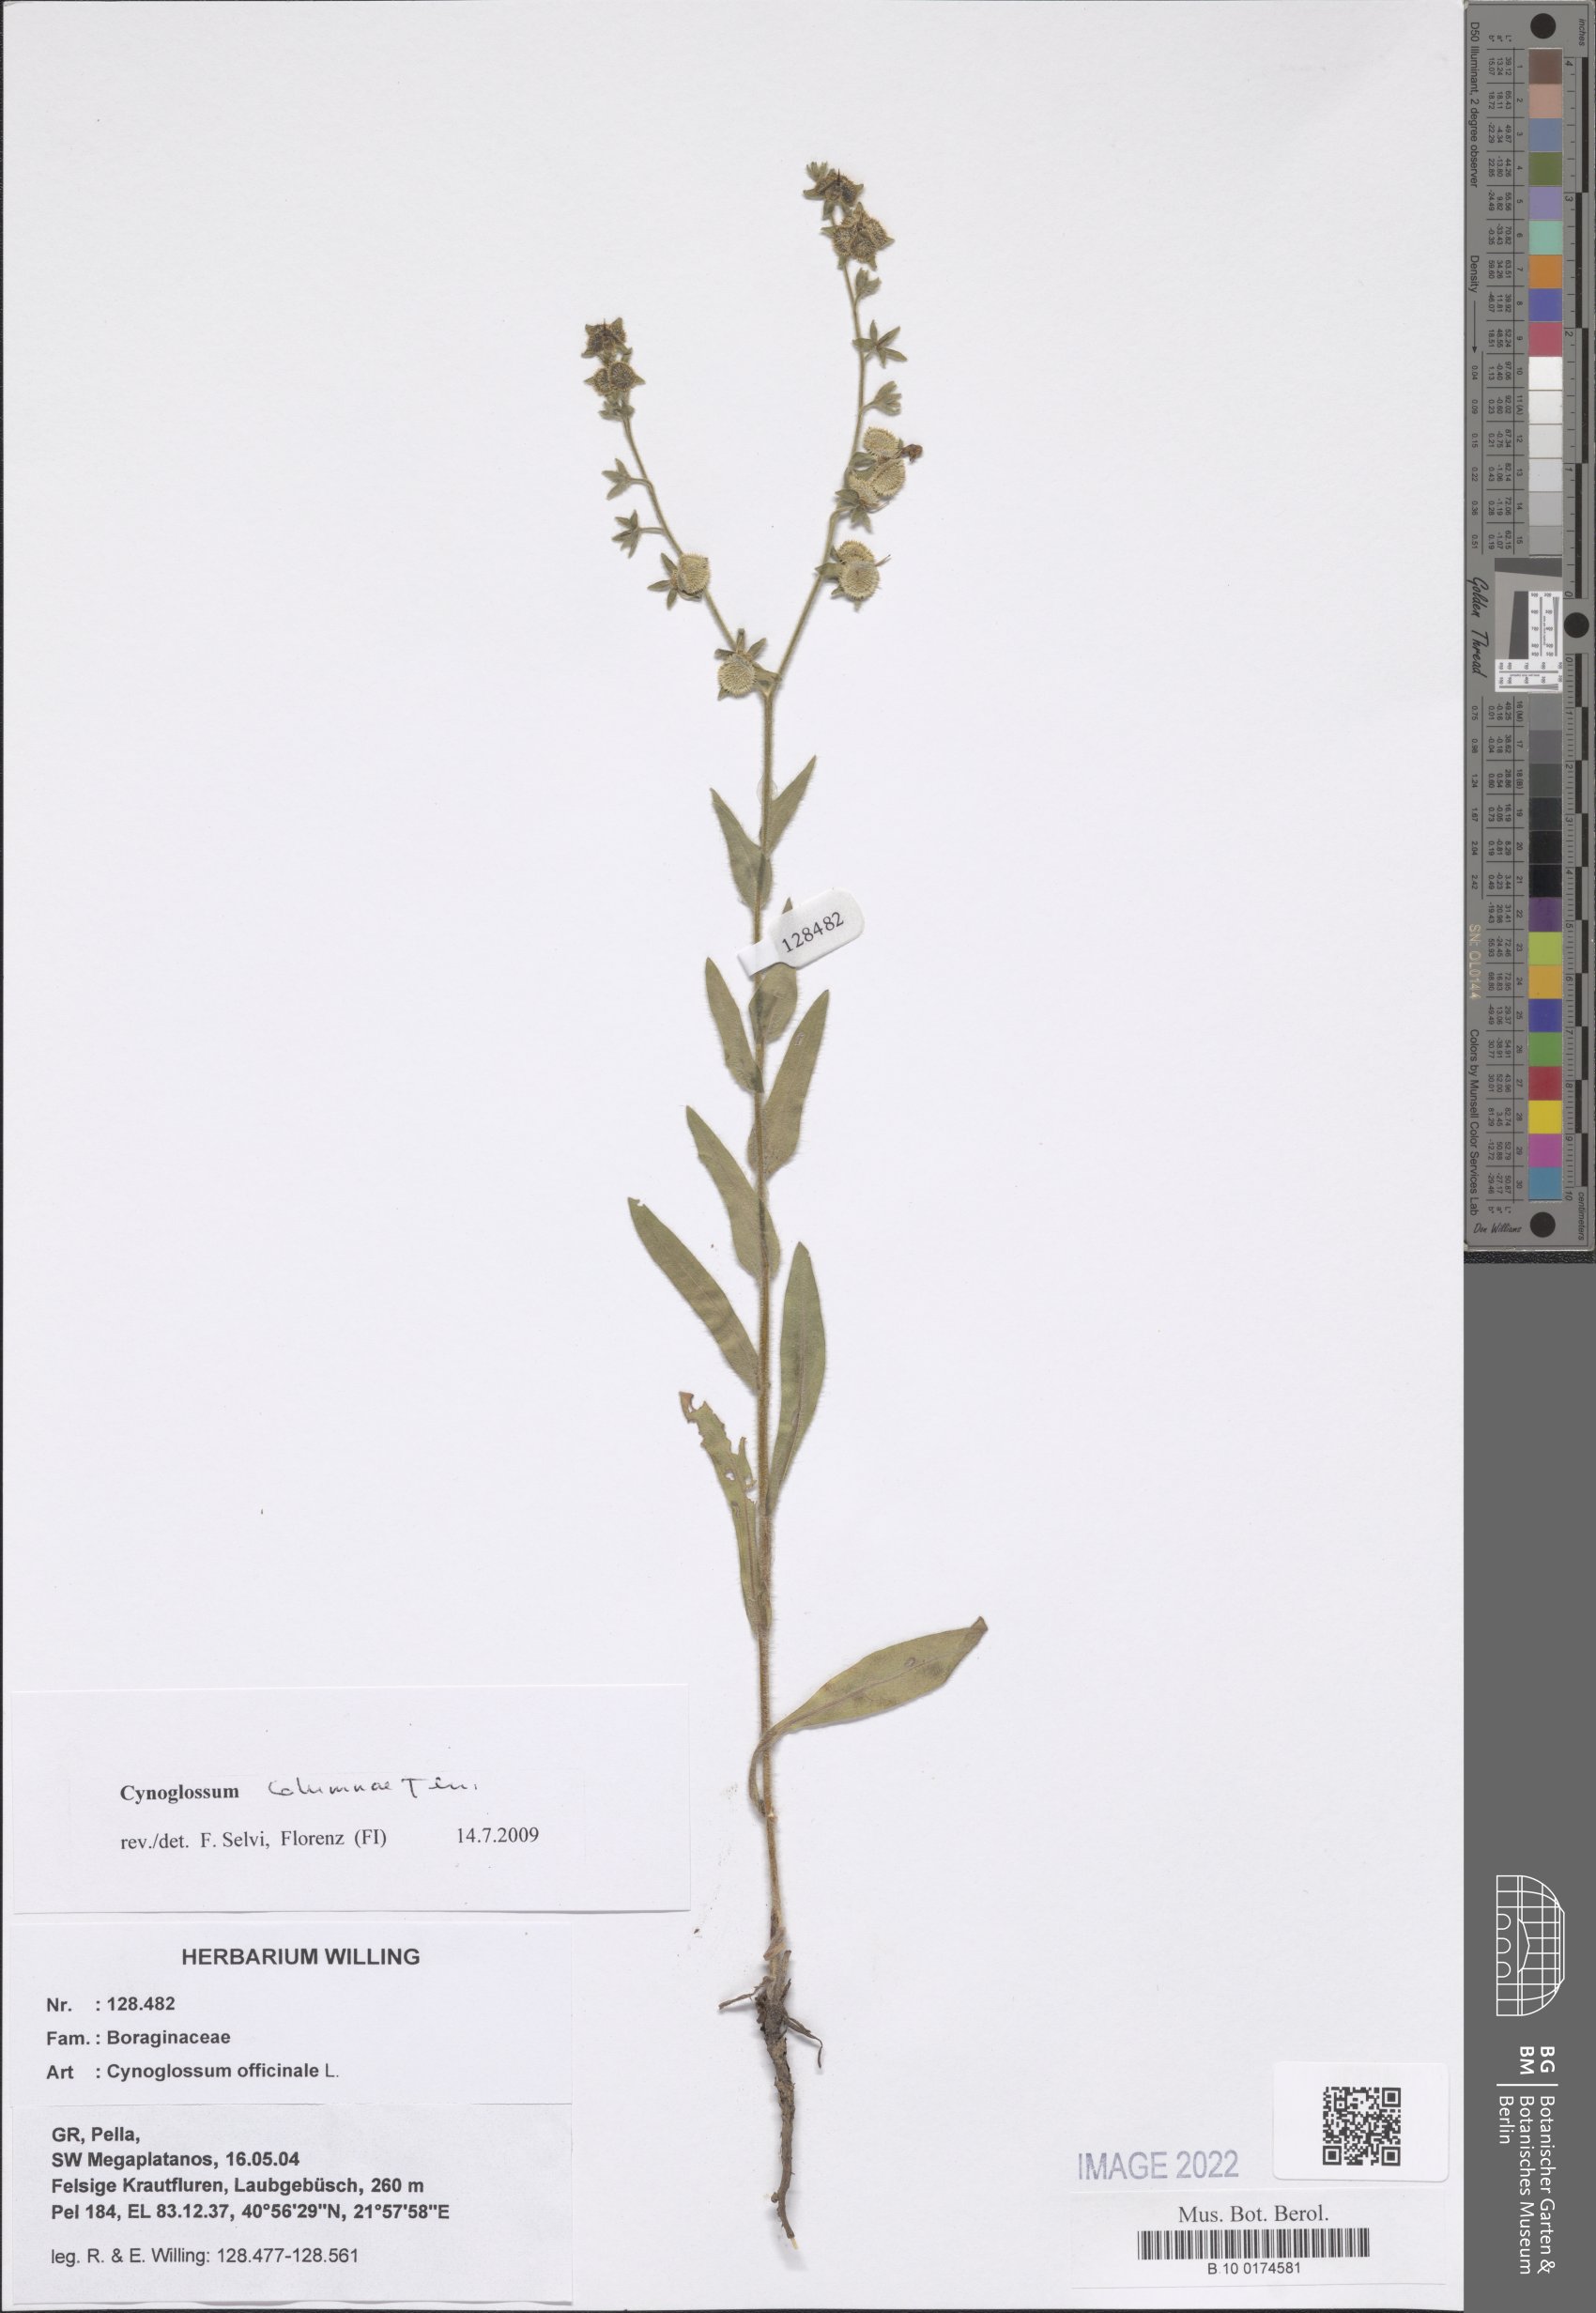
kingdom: Plantae
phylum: Tracheophyta
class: Magnoliopsida
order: Boraginales
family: Boraginaceae
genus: Rindera
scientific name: Rindera columnae
